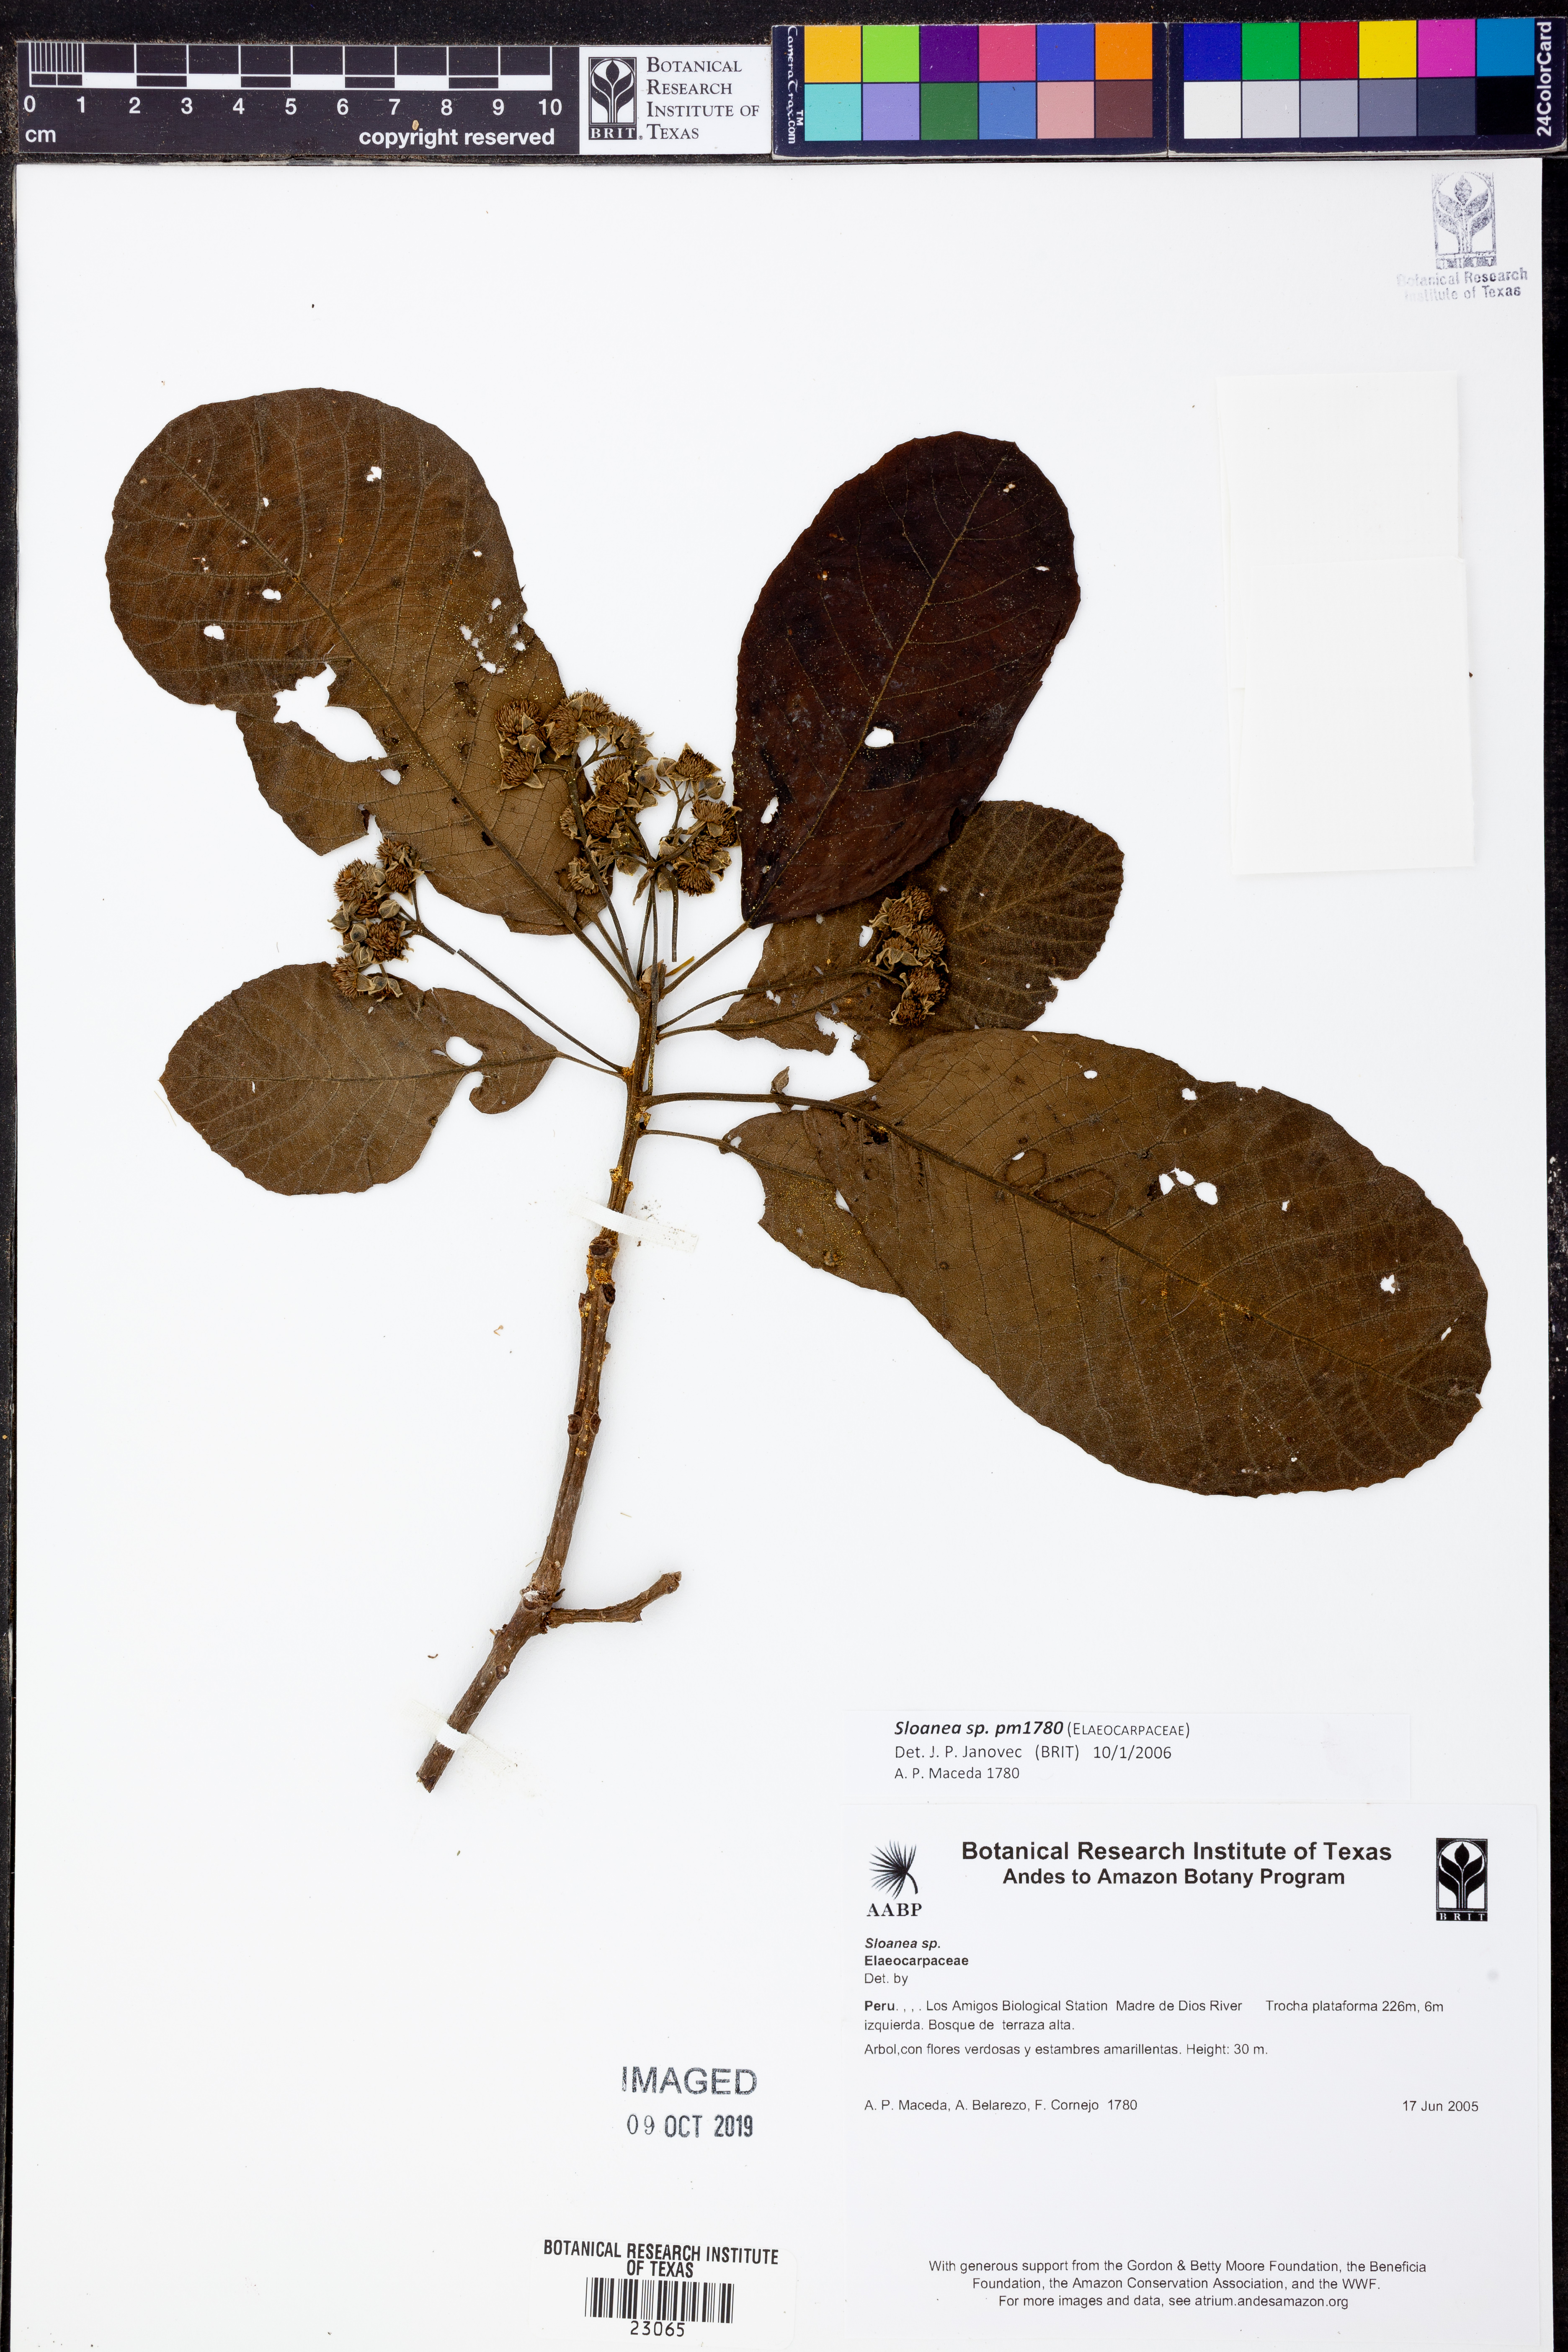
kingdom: Plantae
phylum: Tracheophyta
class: Magnoliopsida
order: Oxalidales
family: Elaeocarpaceae
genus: Sloanea
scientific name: Sloanea
